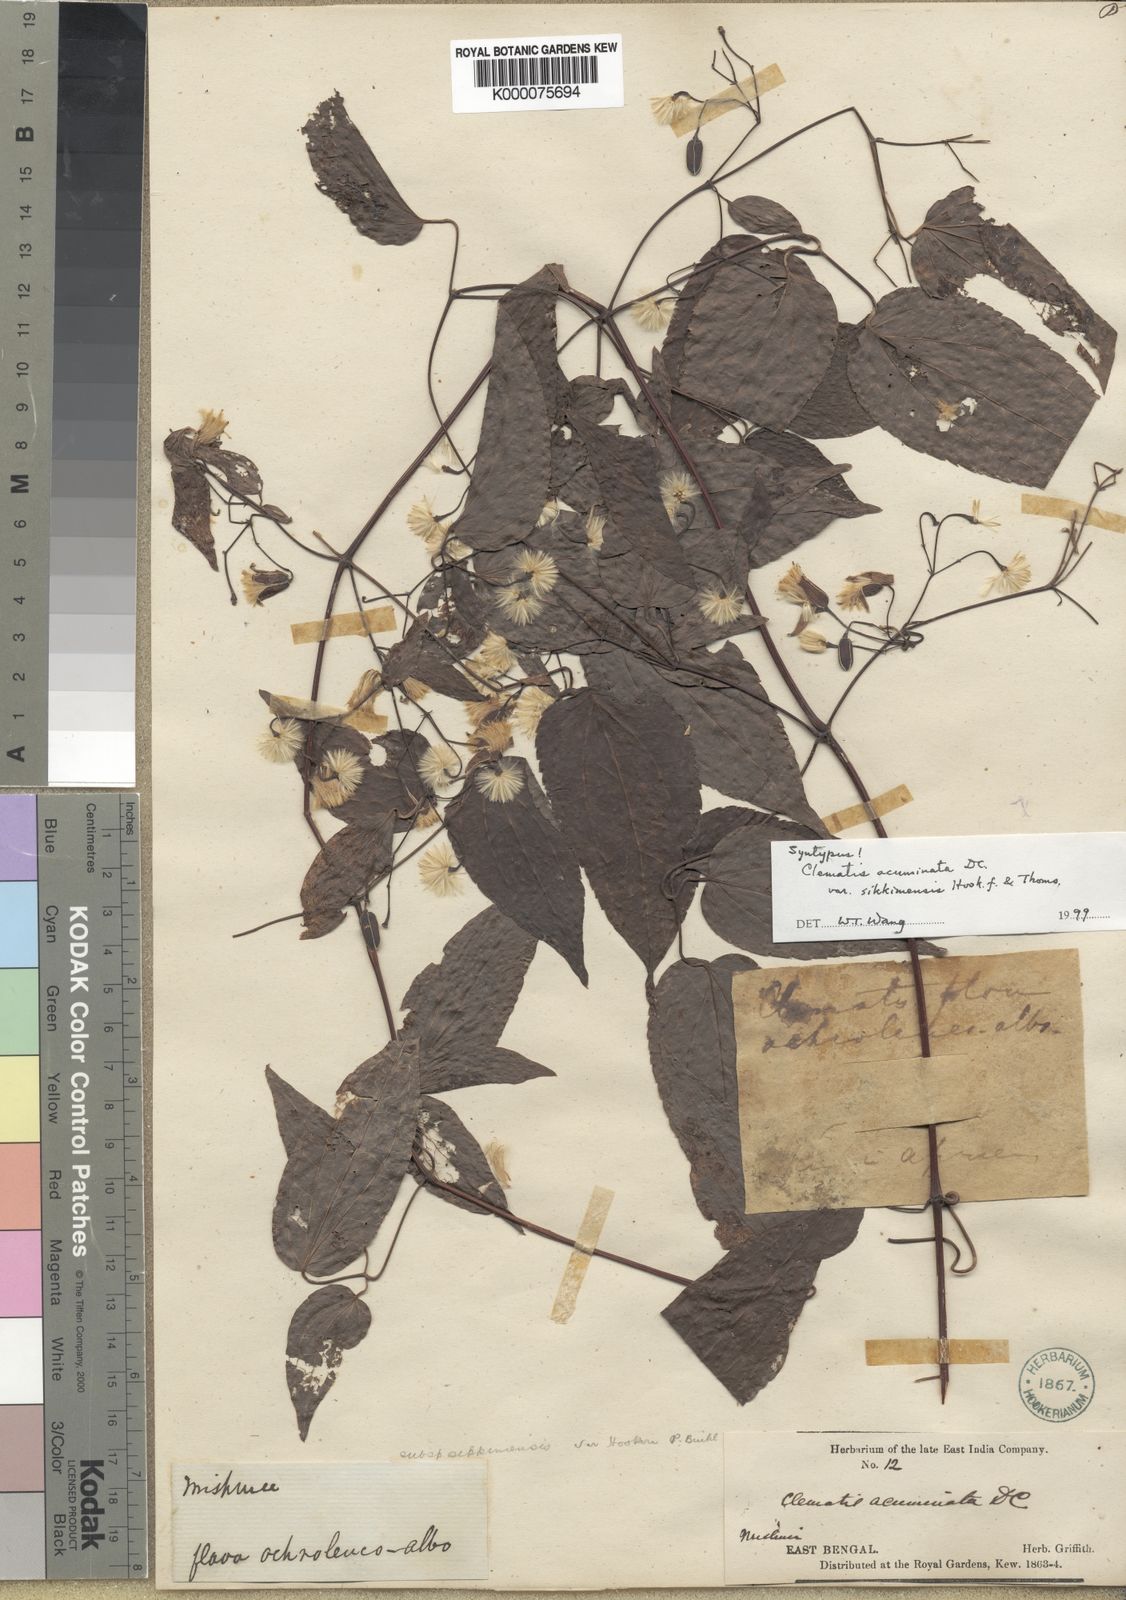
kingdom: Plantae
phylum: Tracheophyta
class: Magnoliopsida
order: Ranunculales
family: Ranunculaceae
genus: Clematis
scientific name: Clematis acuminata
